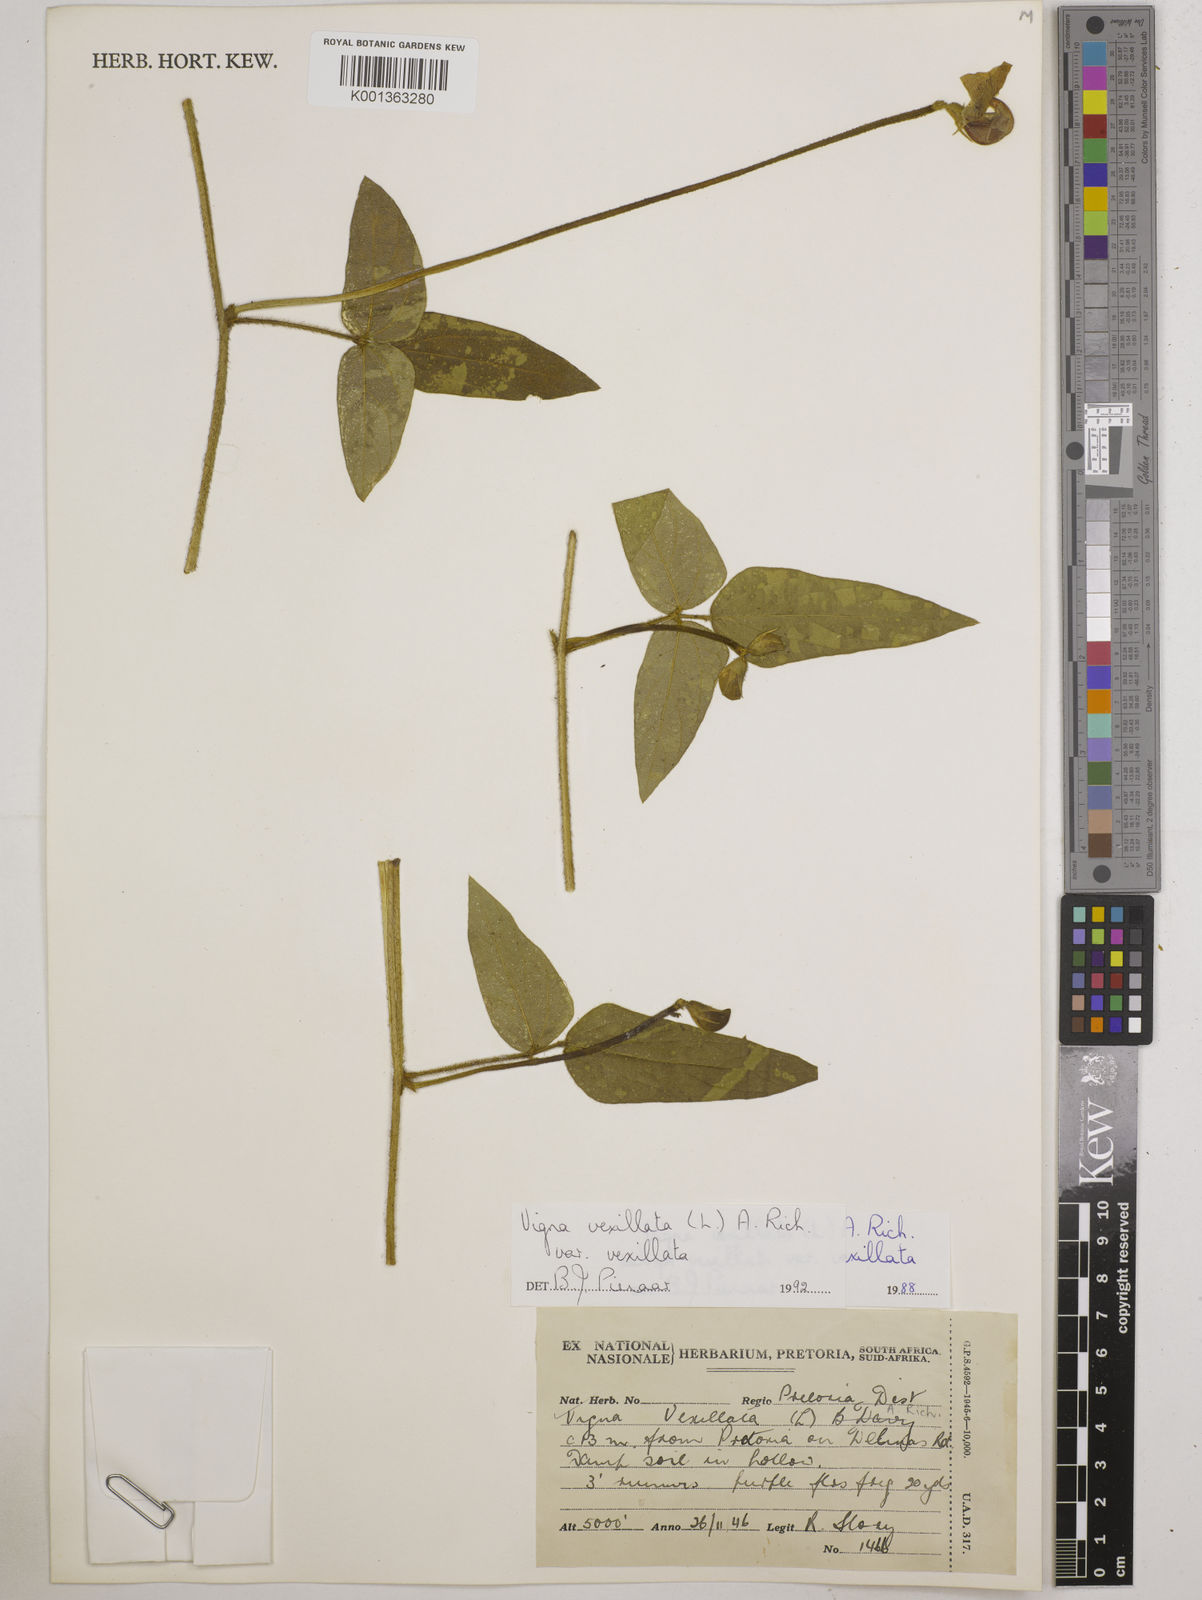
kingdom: Plantae
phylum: Tracheophyta
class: Magnoliopsida
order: Fabales
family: Fabaceae
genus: Vigna
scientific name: Vigna
